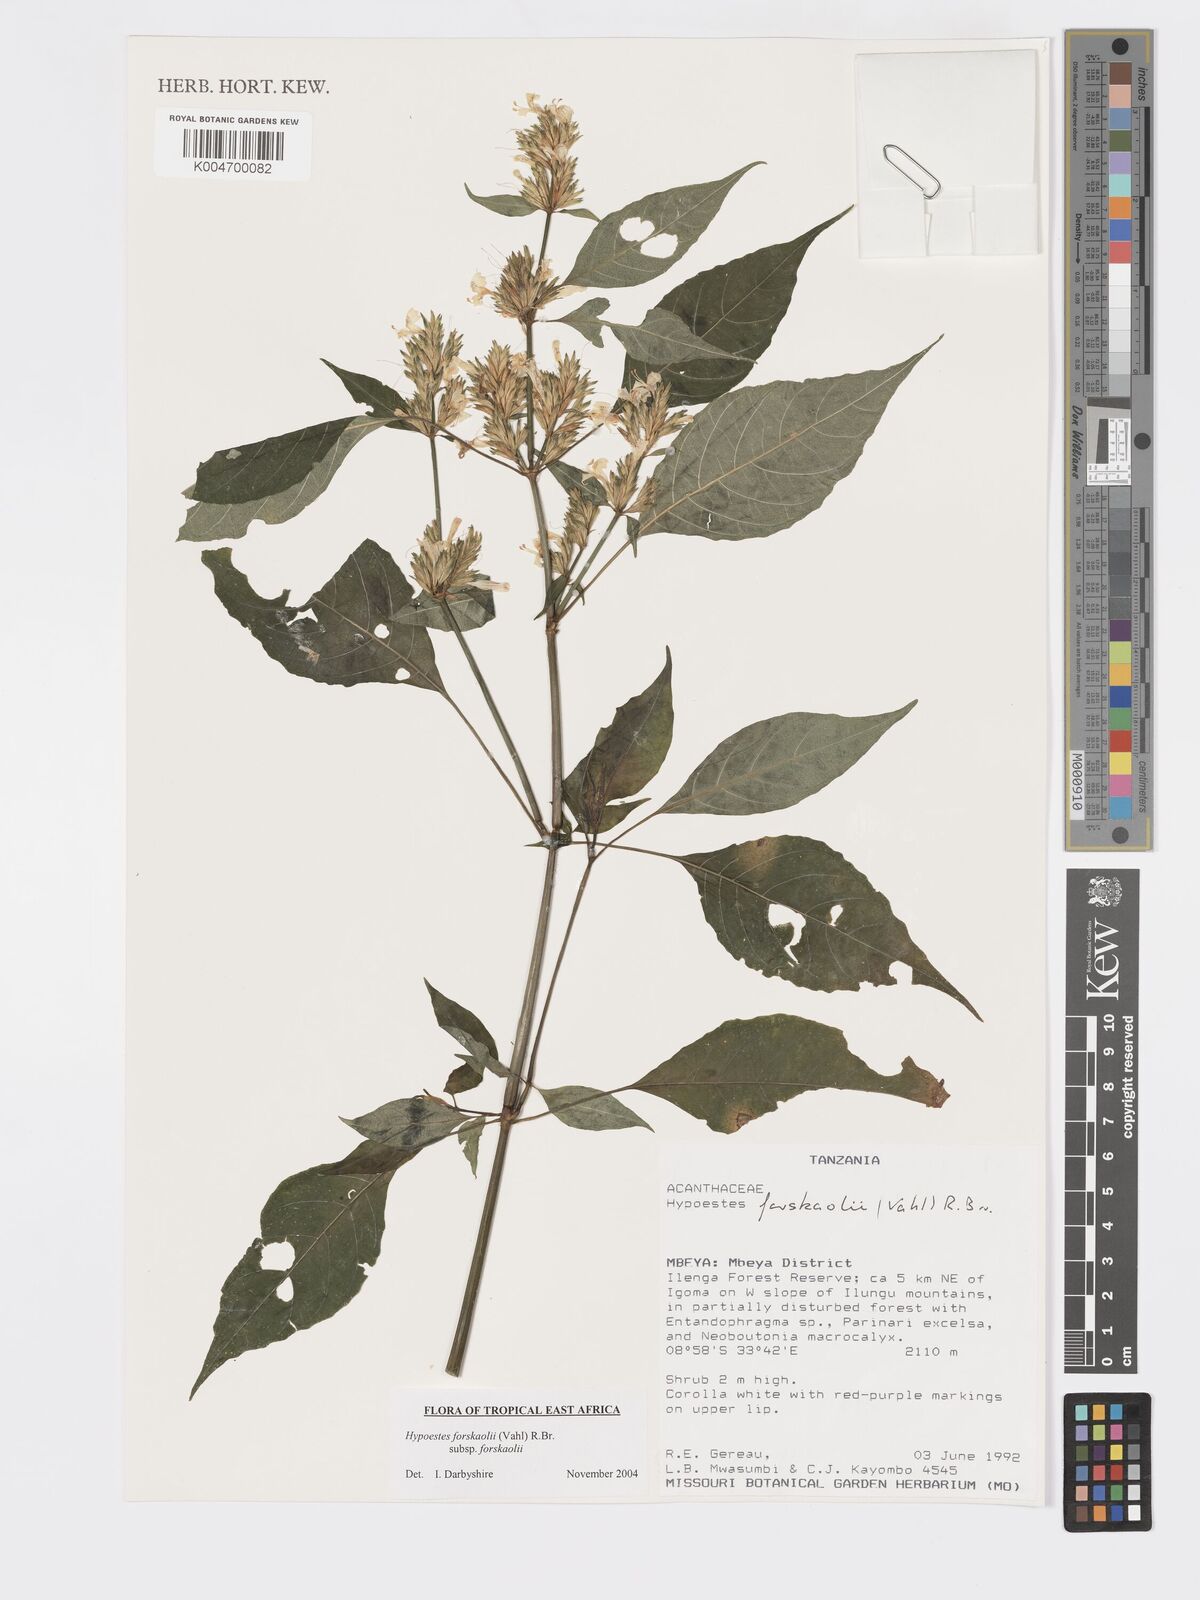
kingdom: Plantae
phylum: Tracheophyta
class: Magnoliopsida
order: Lamiales
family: Acanthaceae
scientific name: Acanthaceae
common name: Acanthaceae
